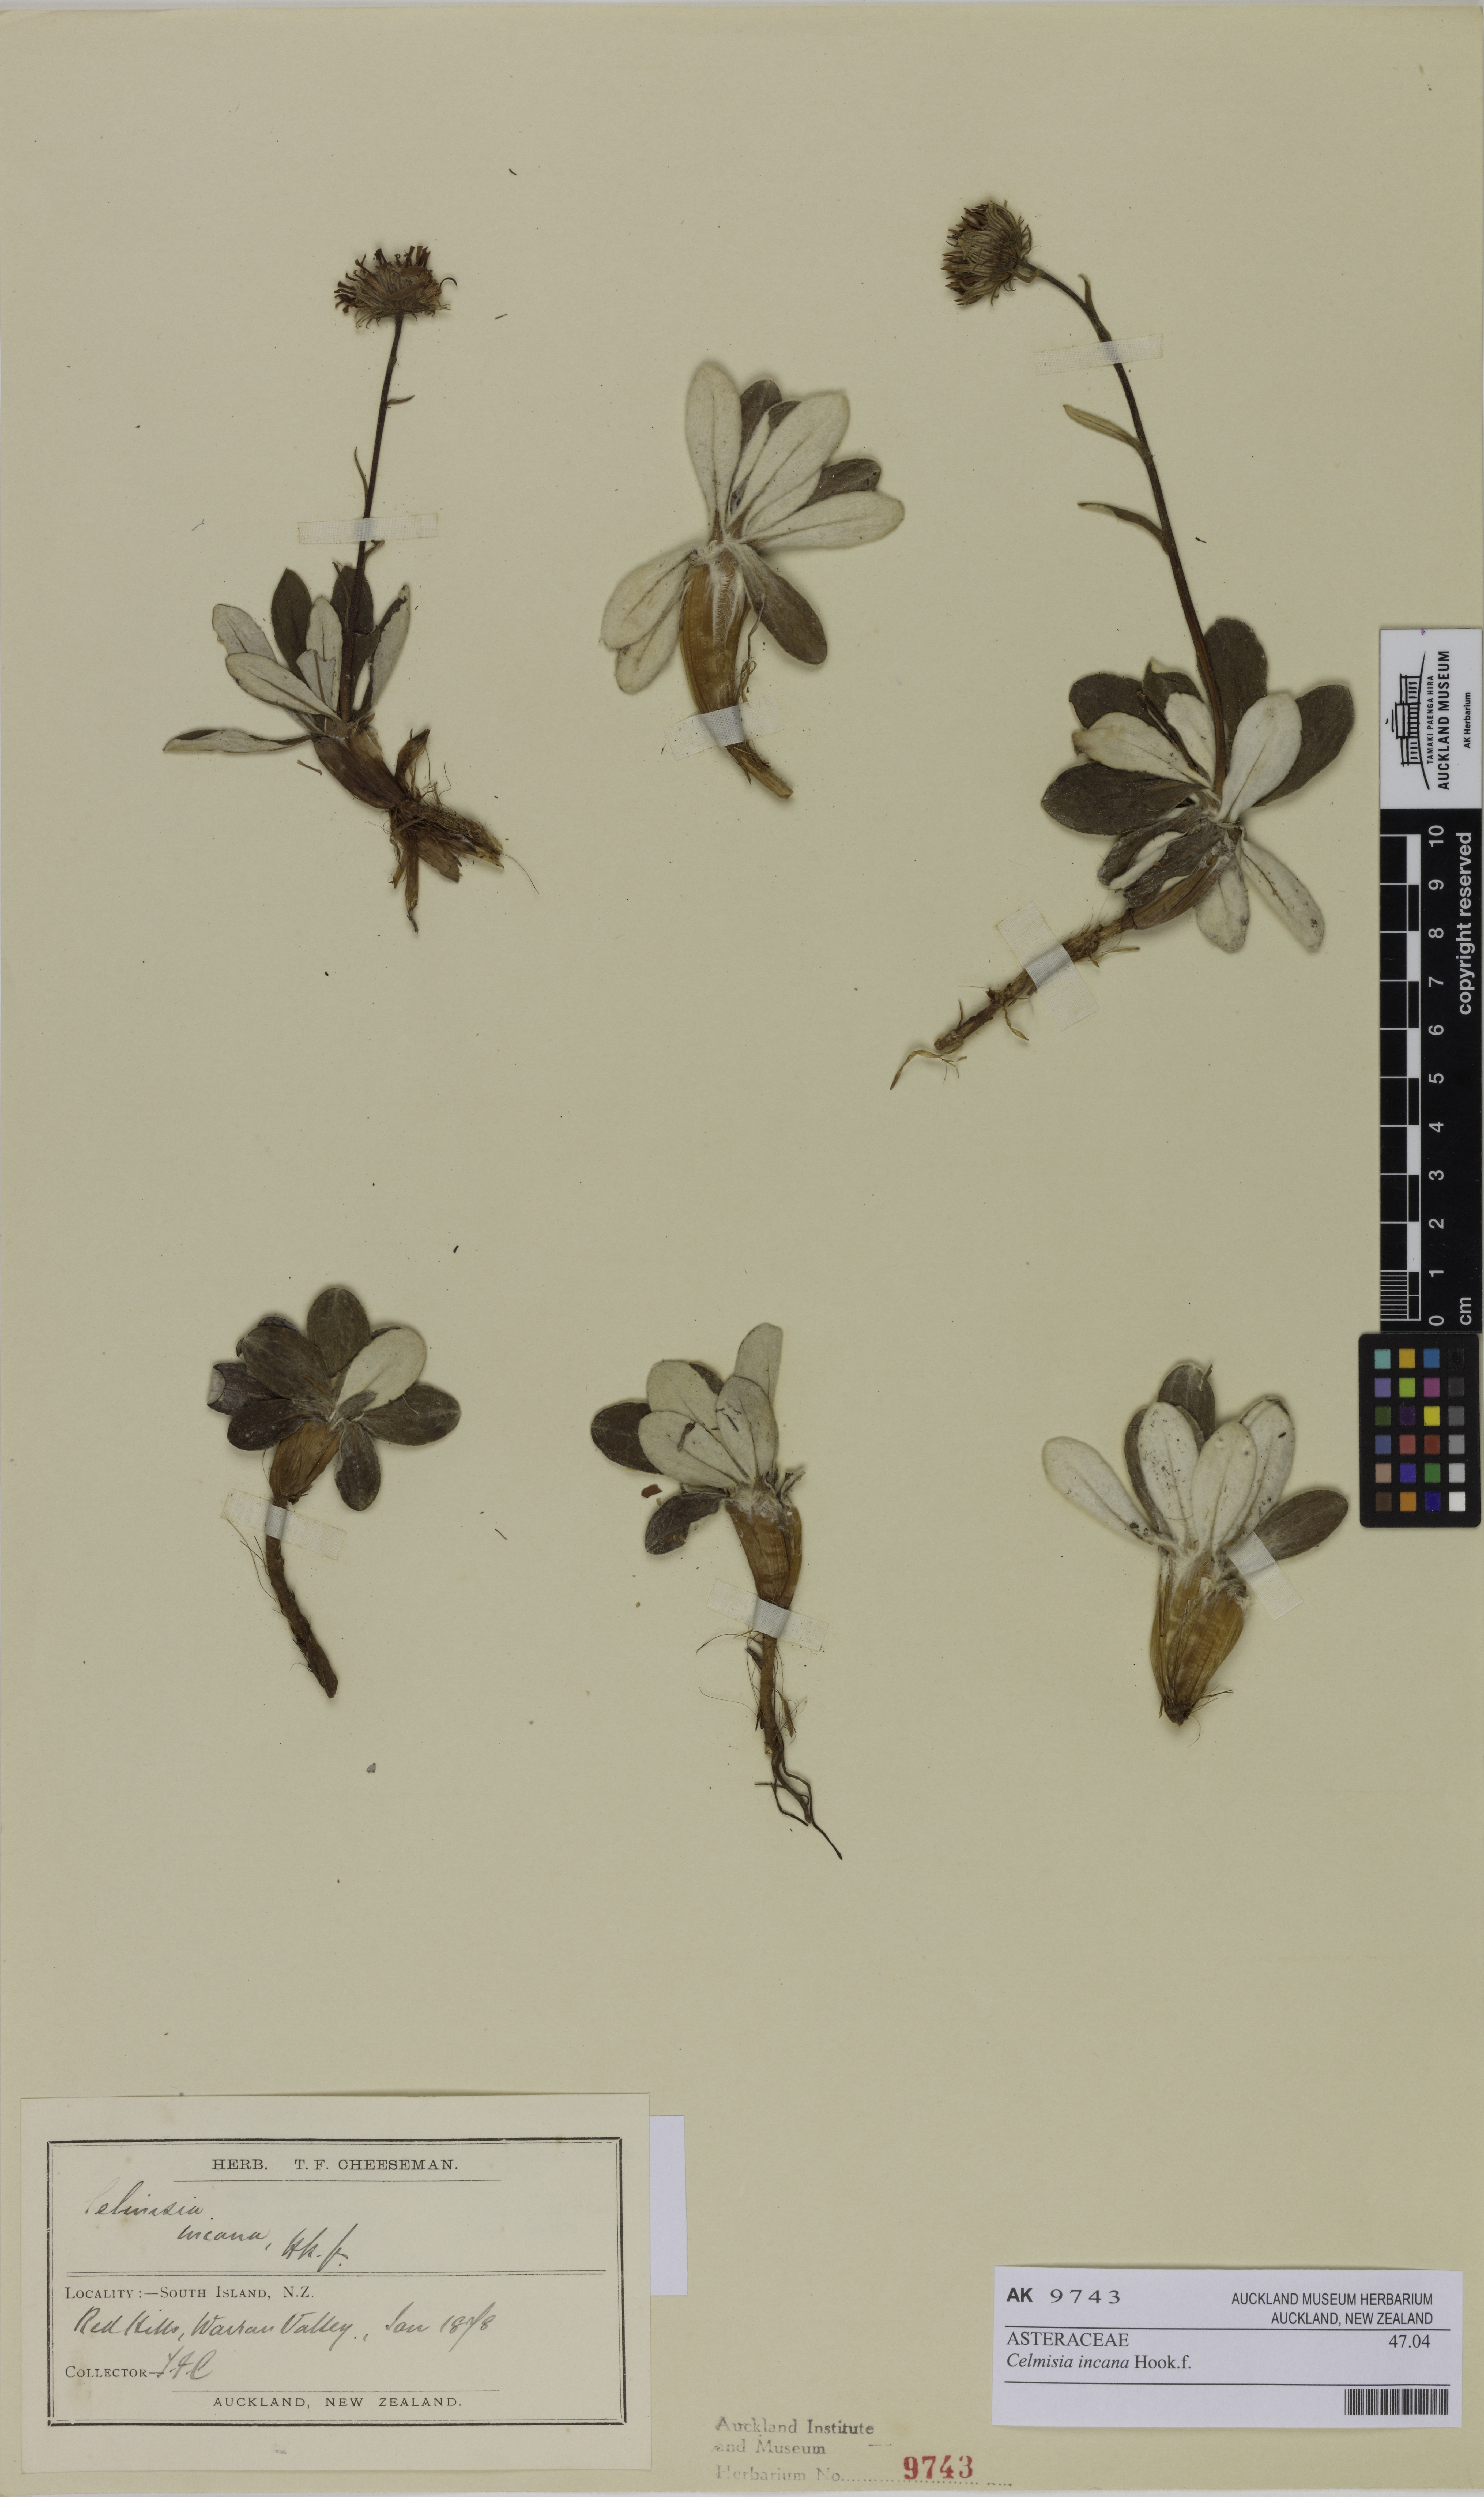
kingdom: Plantae
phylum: Tracheophyta
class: Magnoliopsida
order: Asterales
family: Asteraceae
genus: Celmisia
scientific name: Celmisia incana
